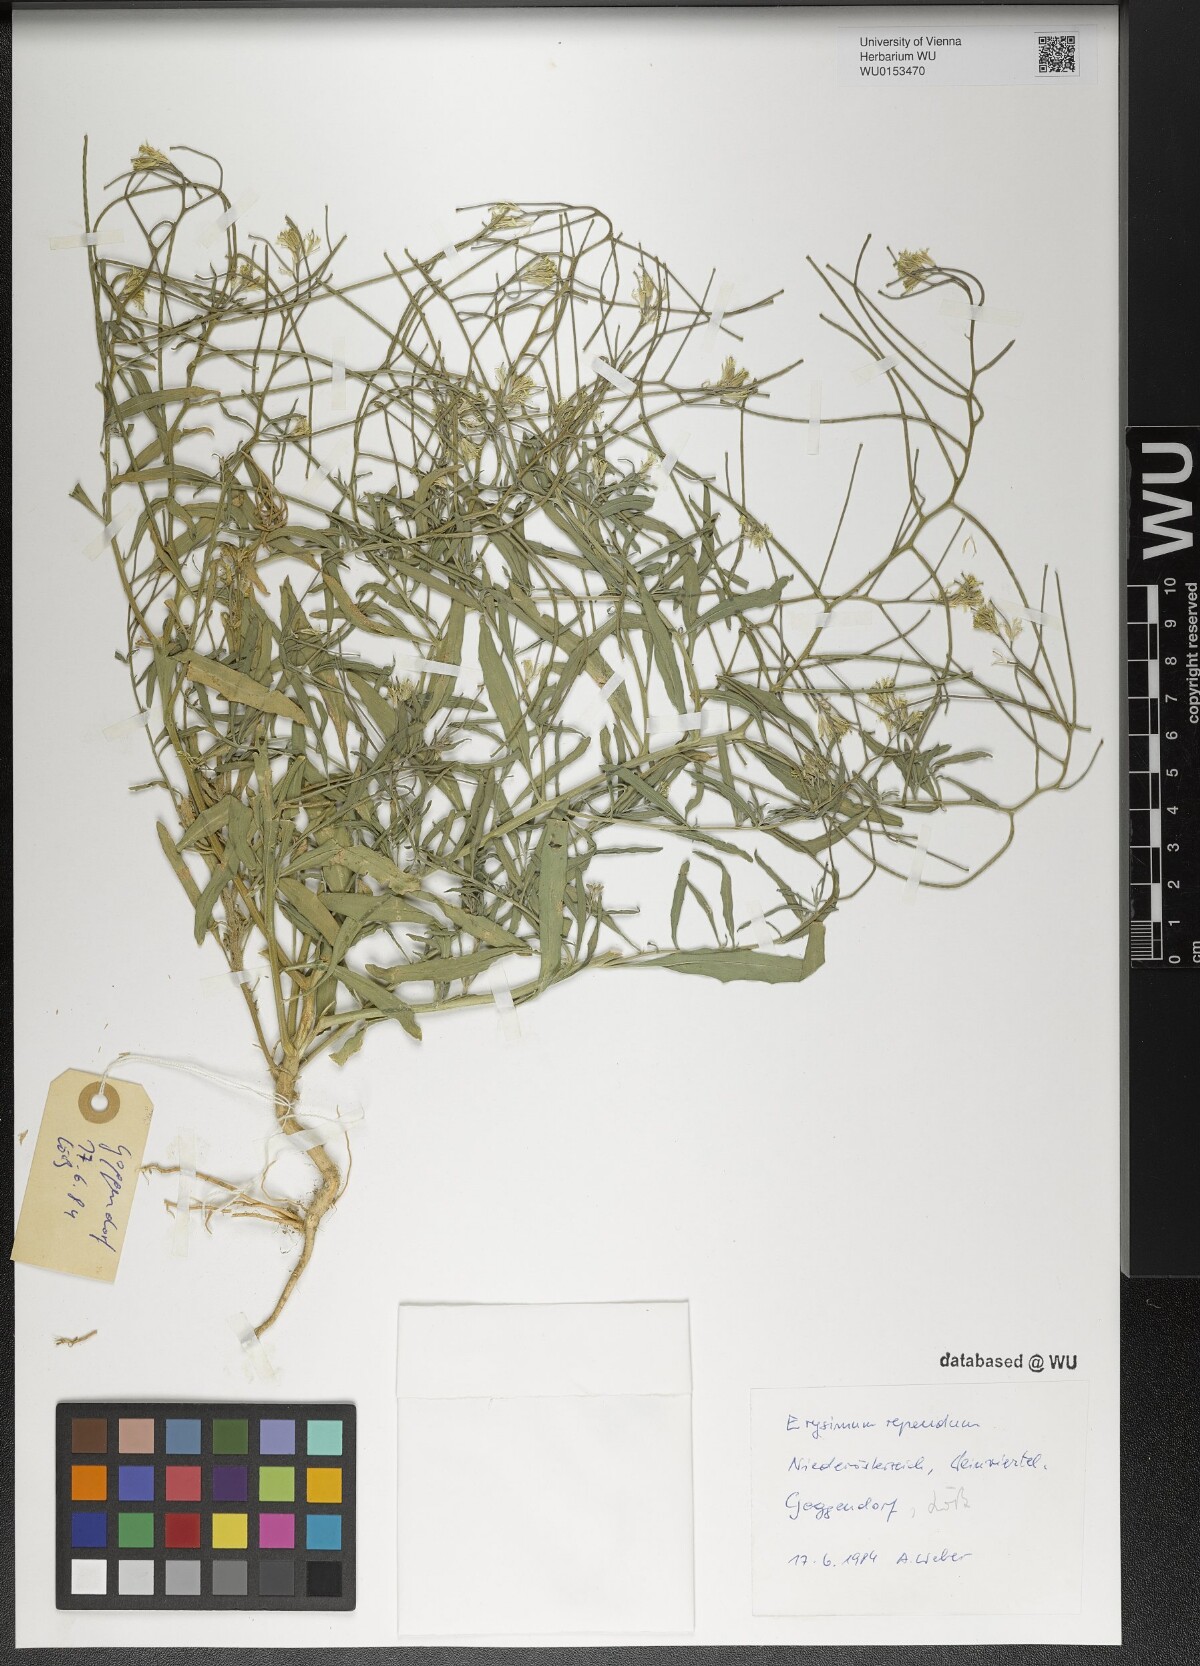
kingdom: Plantae
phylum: Tracheophyta
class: Magnoliopsida
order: Brassicales
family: Brassicaceae
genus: Erysimum
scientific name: Erysimum repandum
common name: Spreading wallflower
